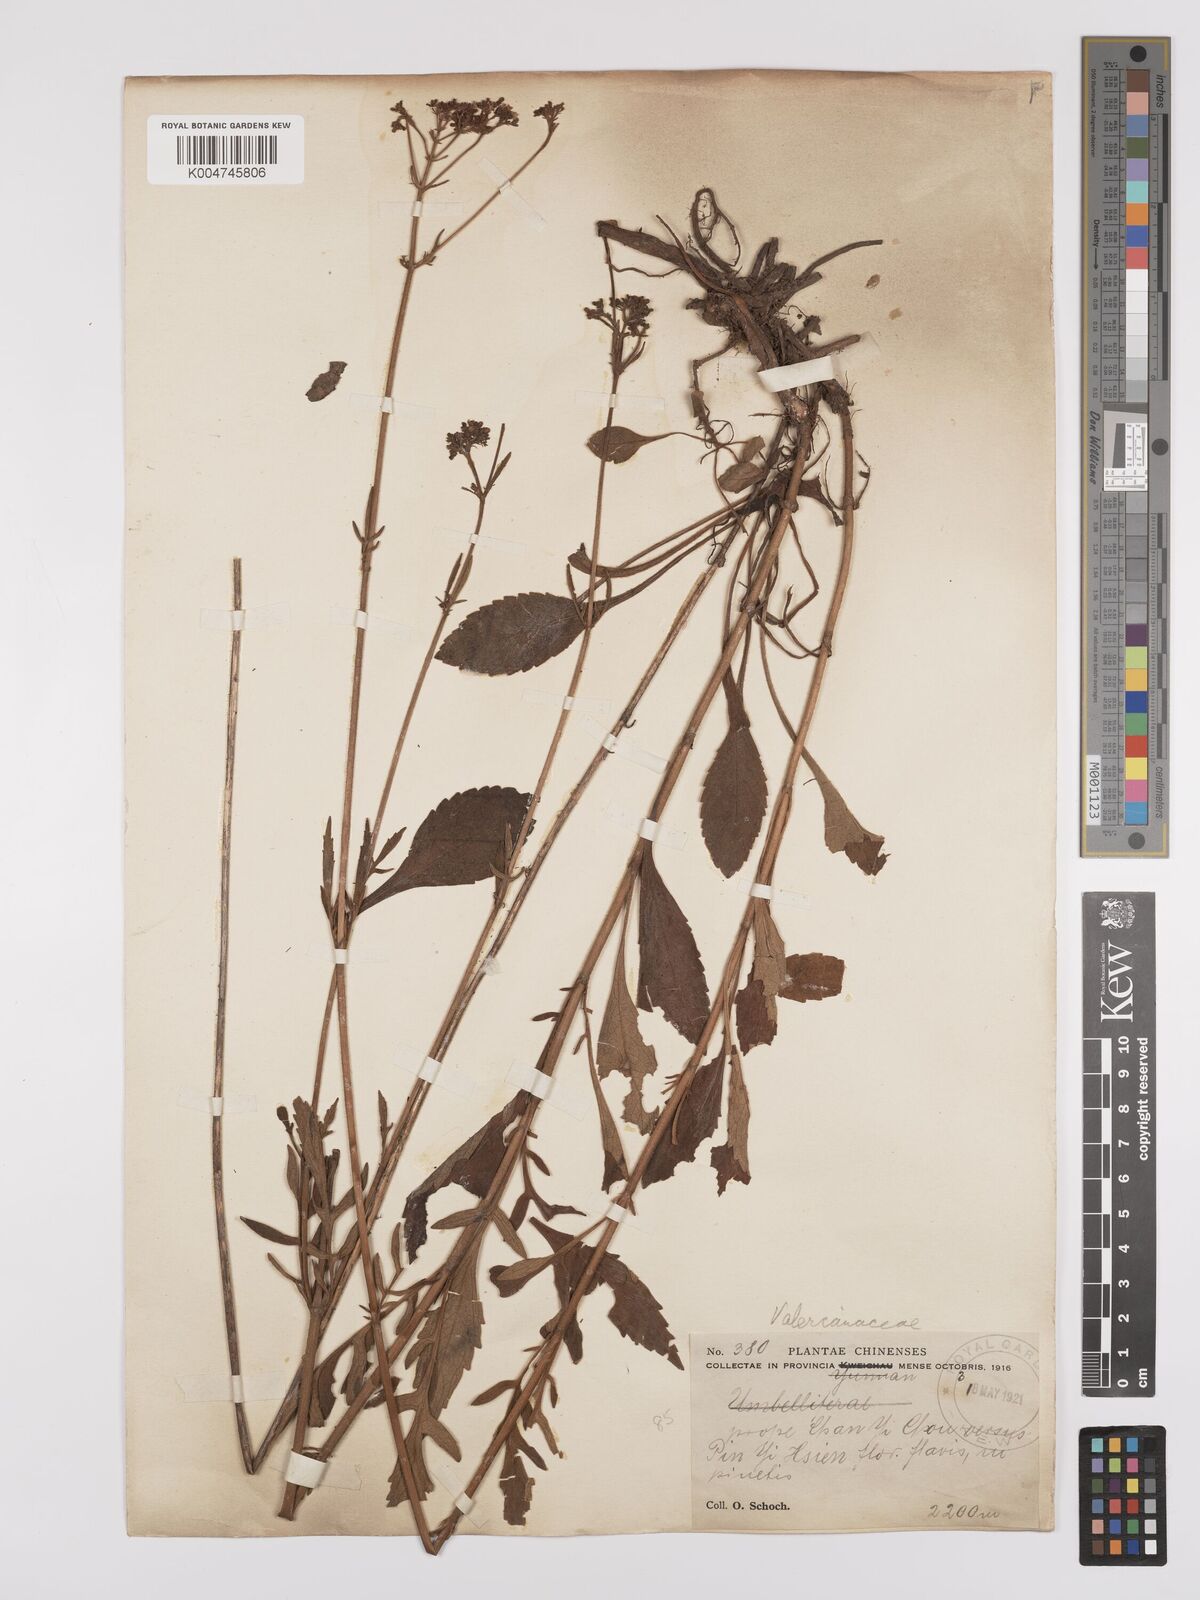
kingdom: Plantae
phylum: Tracheophyta
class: Magnoliopsida
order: Dipsacales
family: Caprifoliaceae
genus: Patrinia
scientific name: Patrinia
